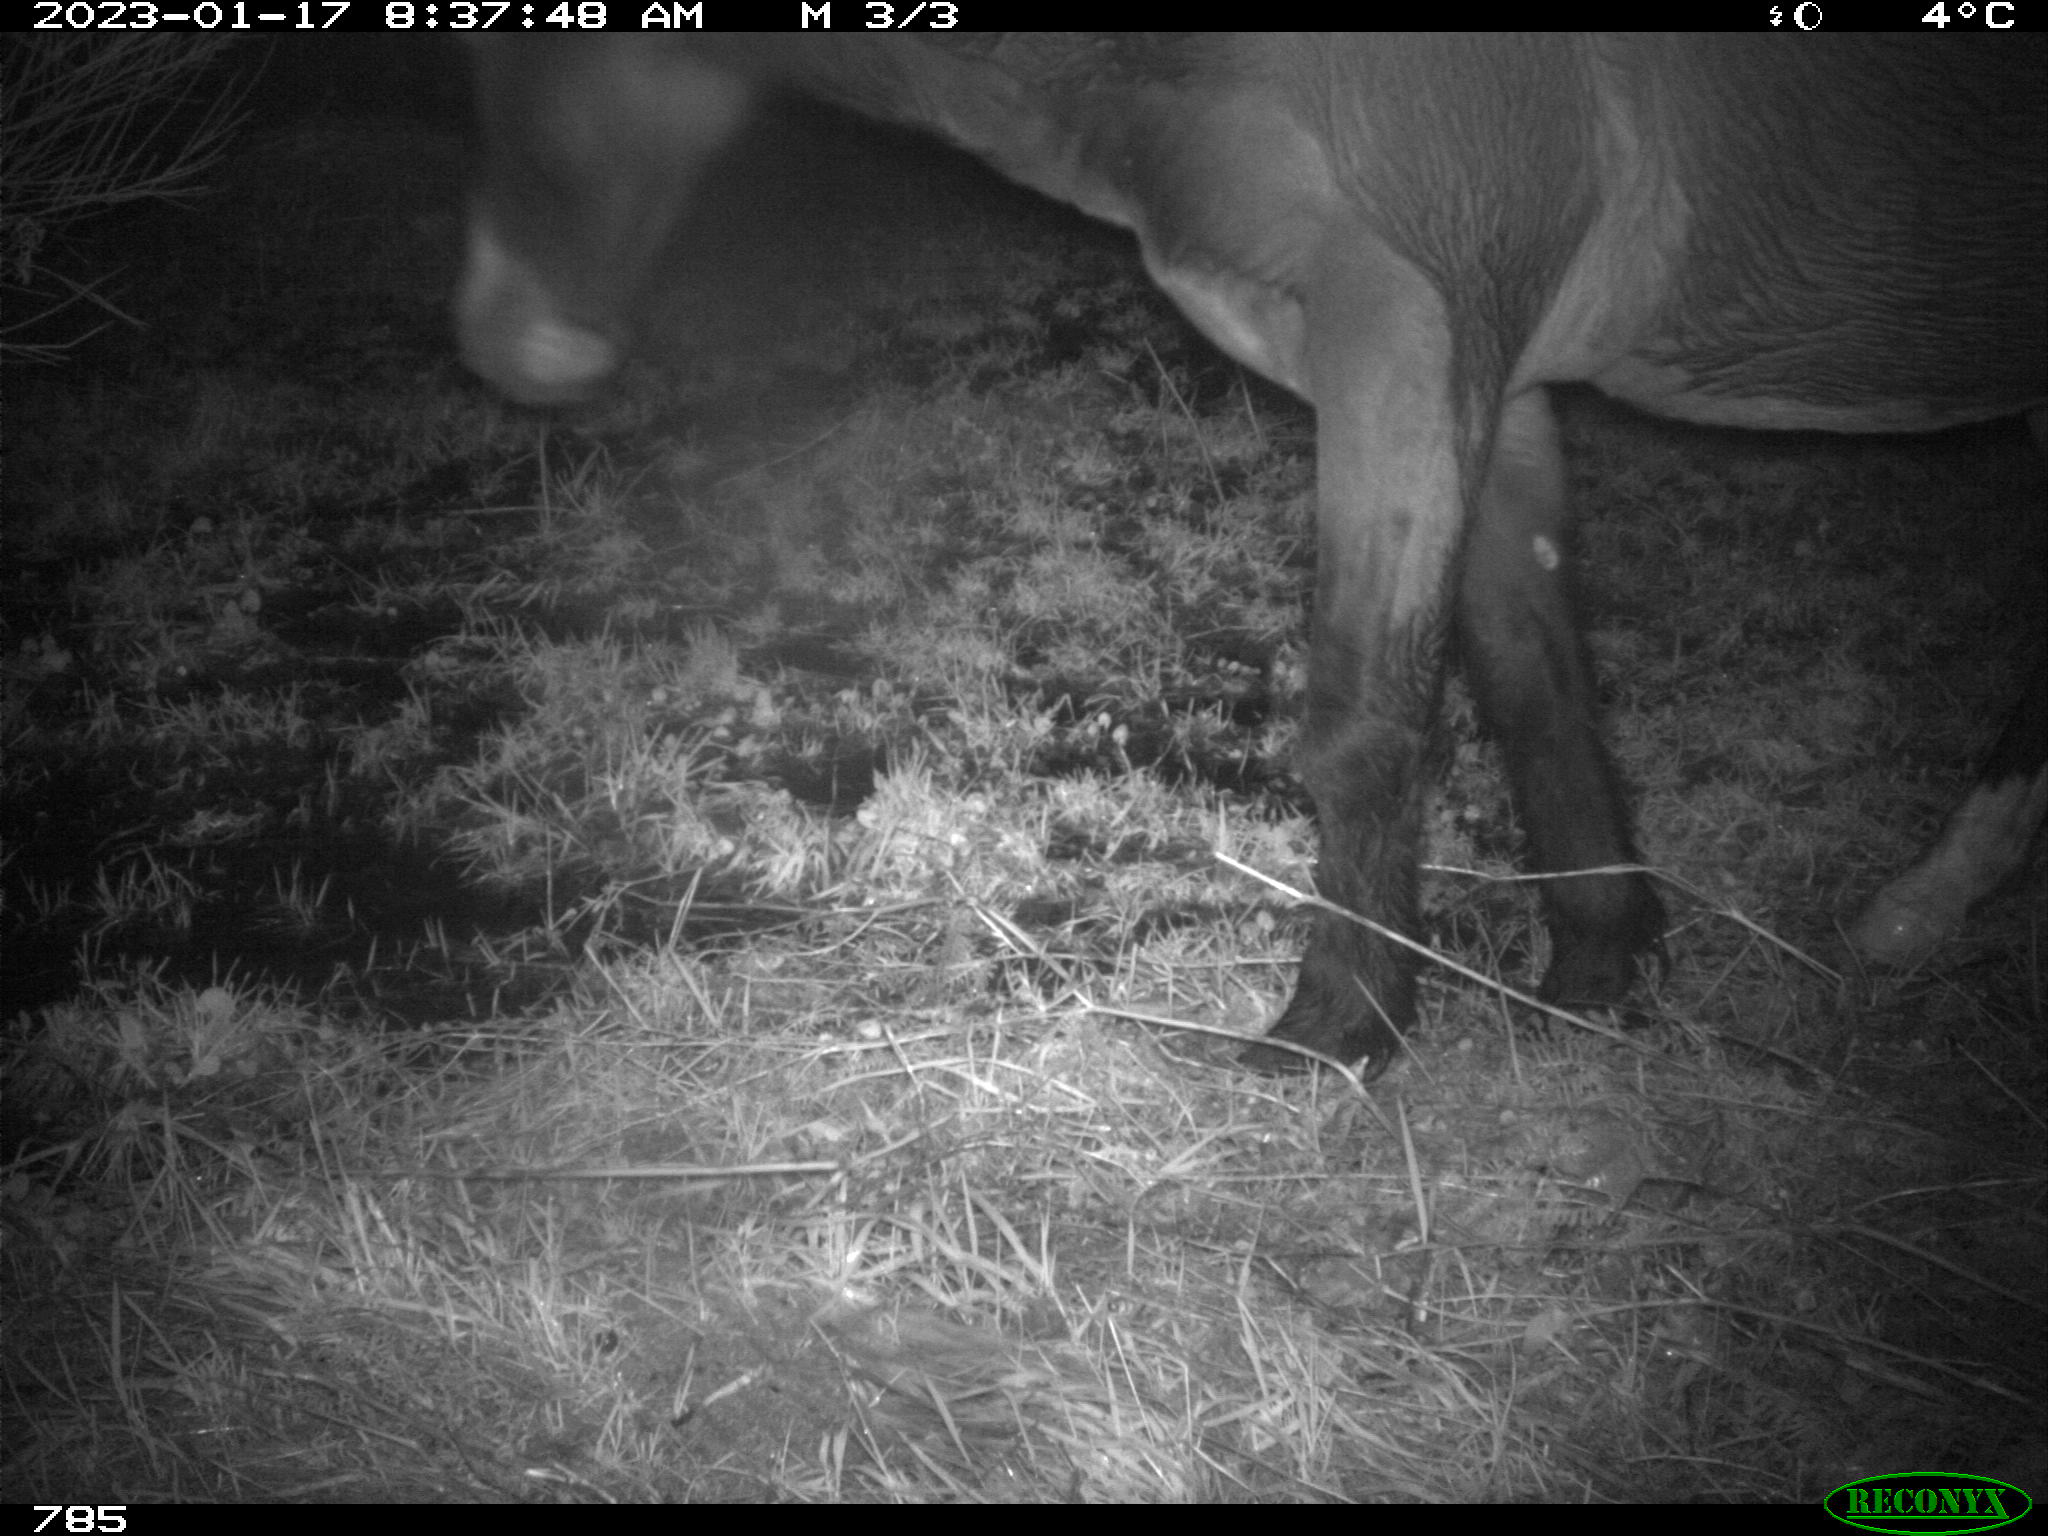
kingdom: Animalia
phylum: Chordata
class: Mammalia
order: Perissodactyla
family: Equidae
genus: Equus
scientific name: Equus caballus
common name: Horse
